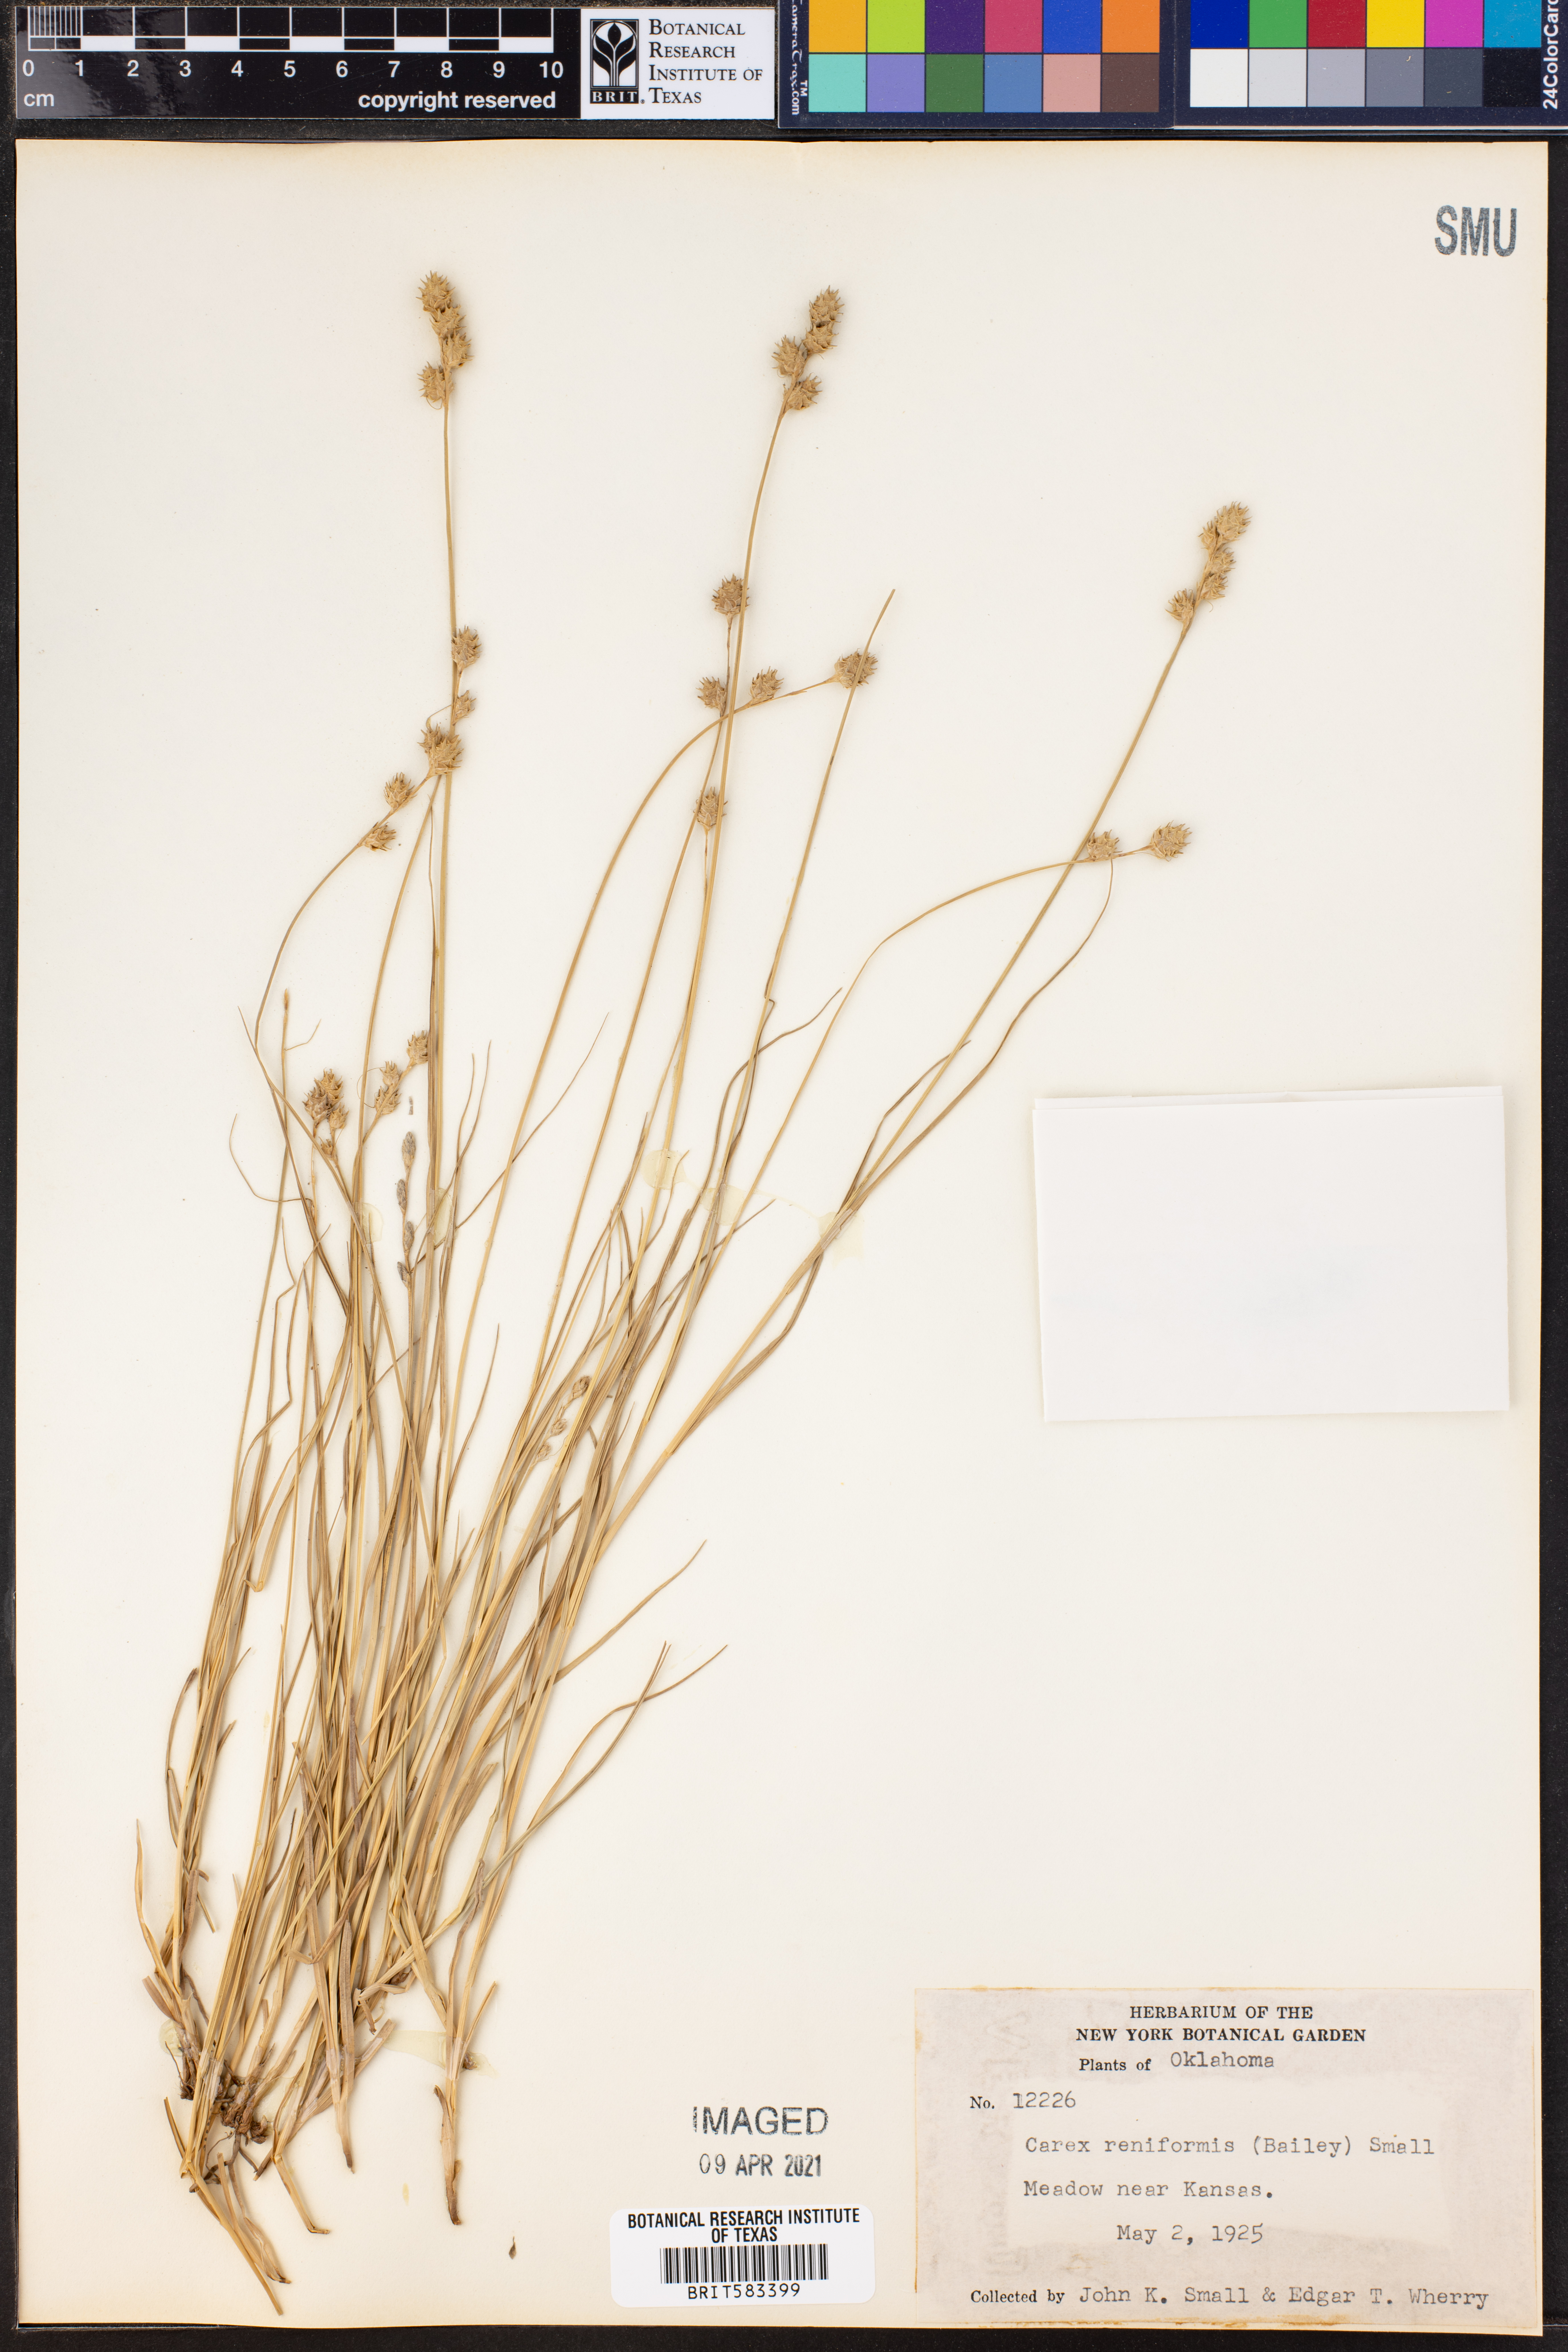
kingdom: Plantae
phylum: Tracheophyta
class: Liliopsida
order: Poales
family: Cyperaceae
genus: Carex
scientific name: Carex reniformis
